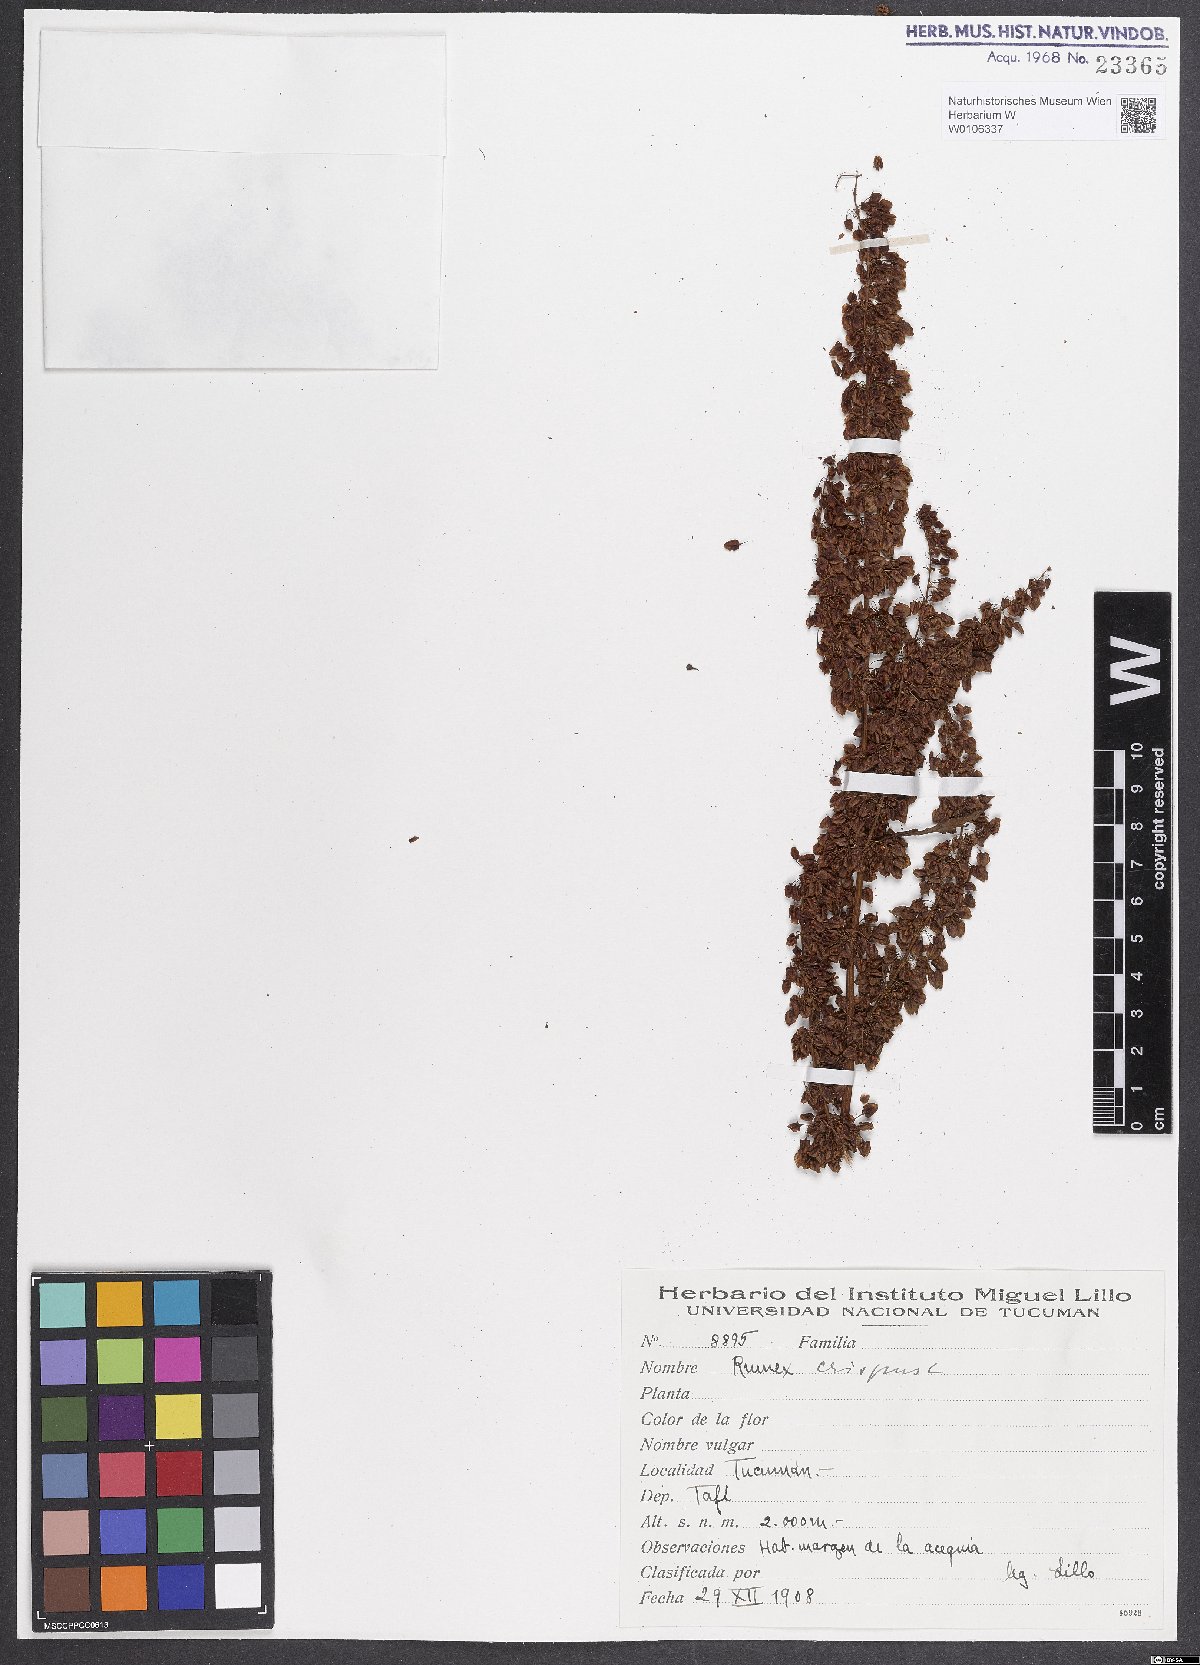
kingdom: Plantae
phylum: Tracheophyta
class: Magnoliopsida
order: Caryophyllales
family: Polygonaceae
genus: Rumex
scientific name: Rumex crispus
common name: Curled dock
